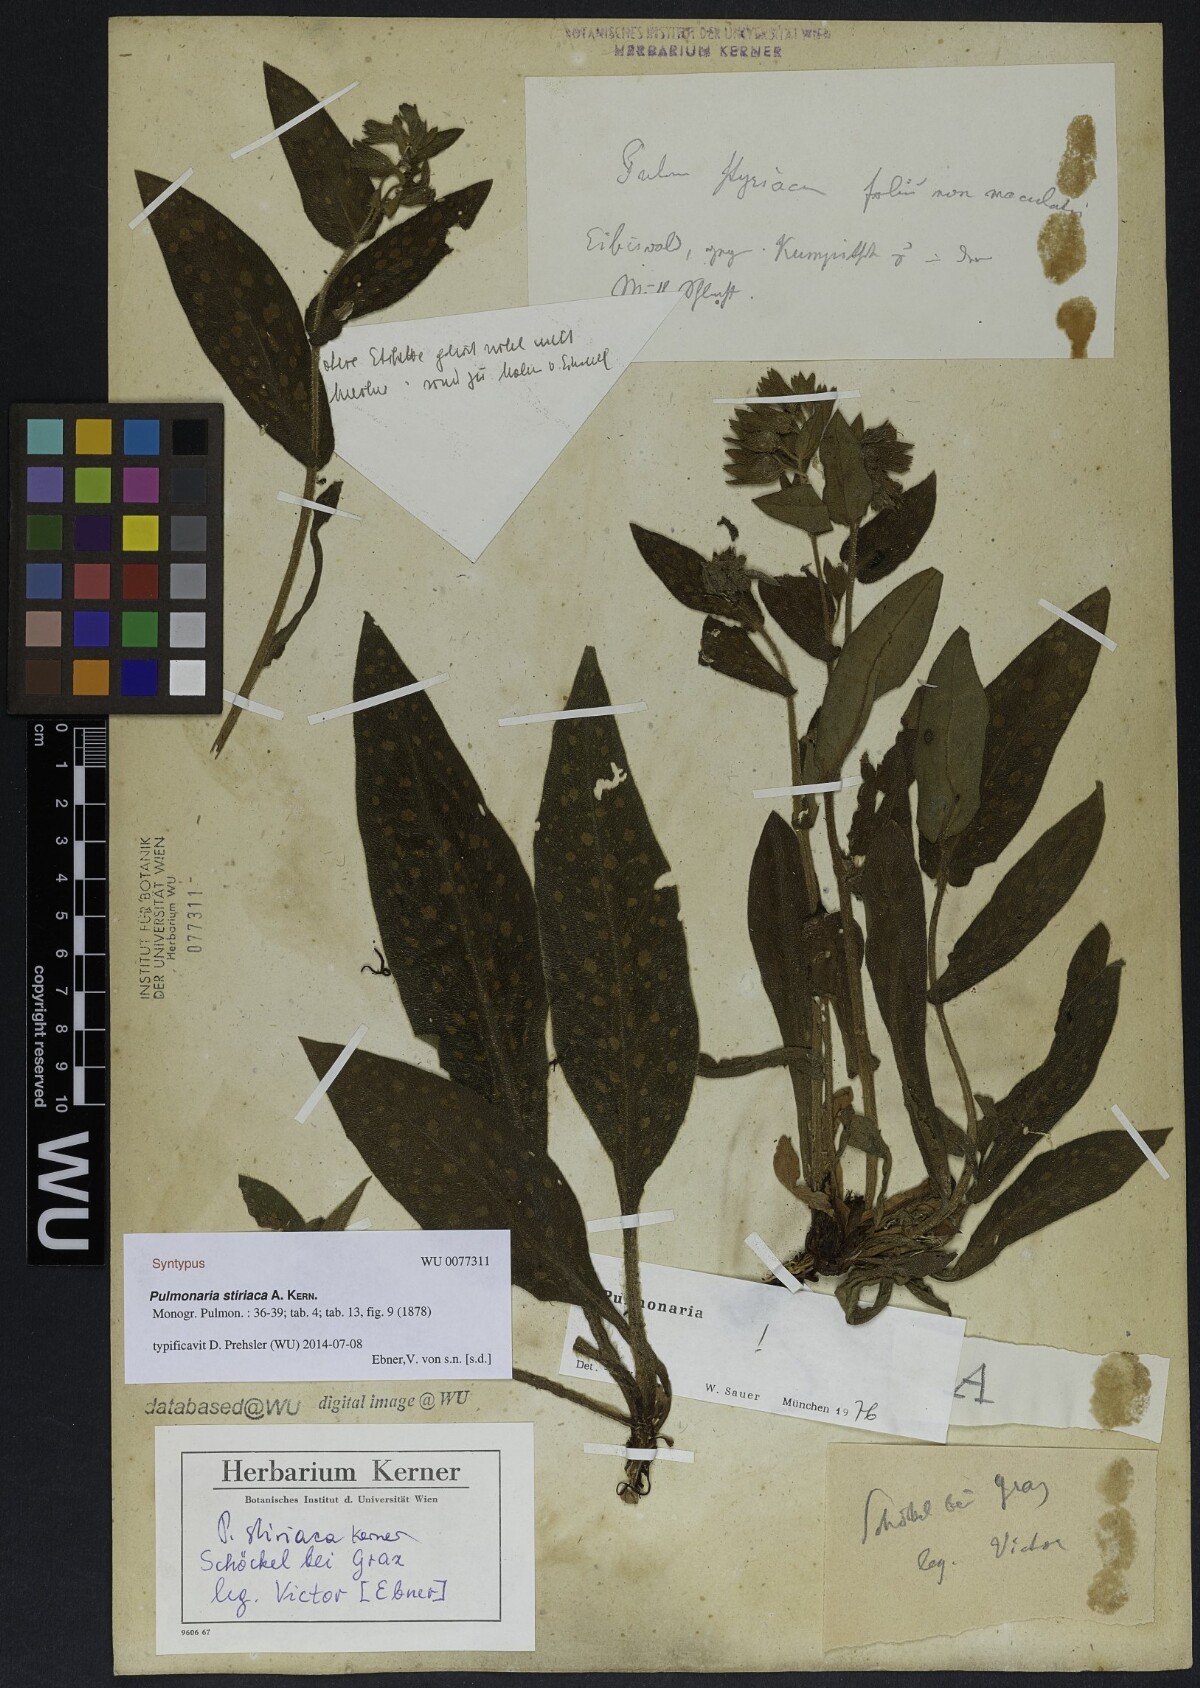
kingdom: Plantae
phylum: Tracheophyta
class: Magnoliopsida
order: Boraginales
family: Boraginaceae
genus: Pulmonaria
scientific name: Pulmonaria stiriaca
